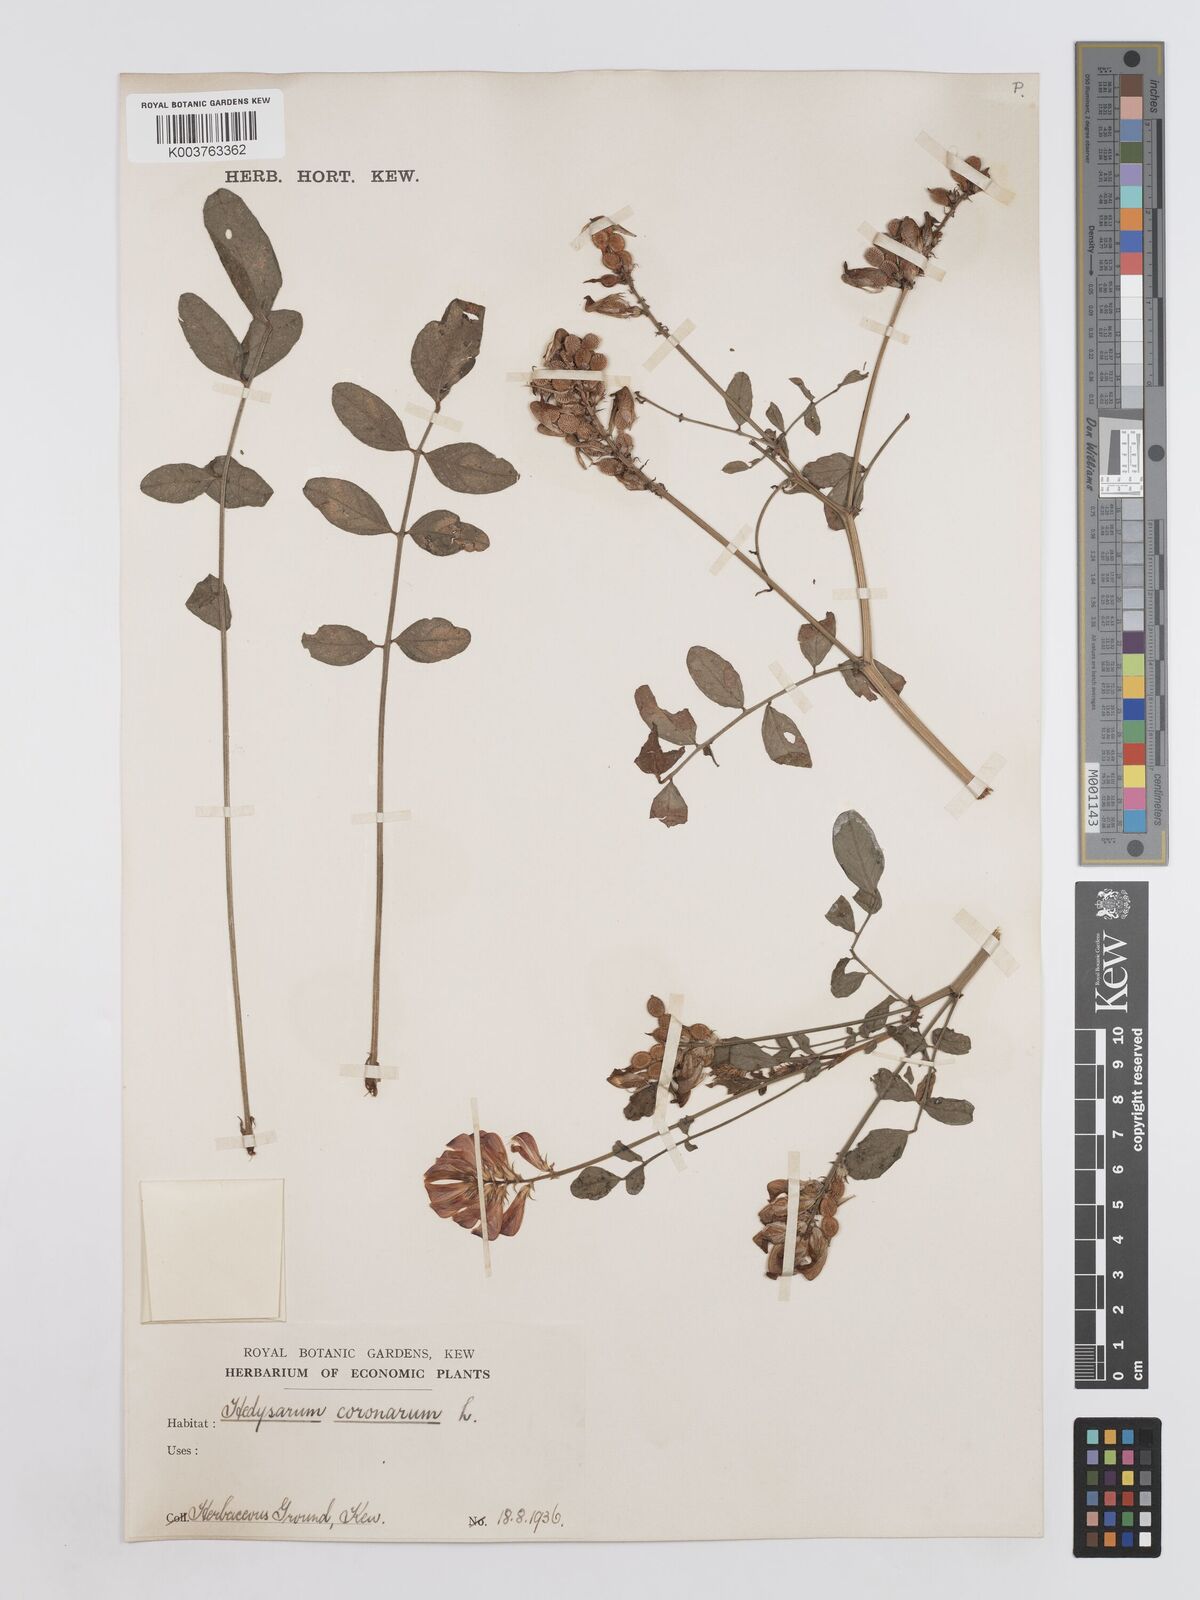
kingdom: Plantae
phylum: Tracheophyta
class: Magnoliopsida
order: Fabales
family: Fabaceae
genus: Sulla
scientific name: Sulla coronaria
